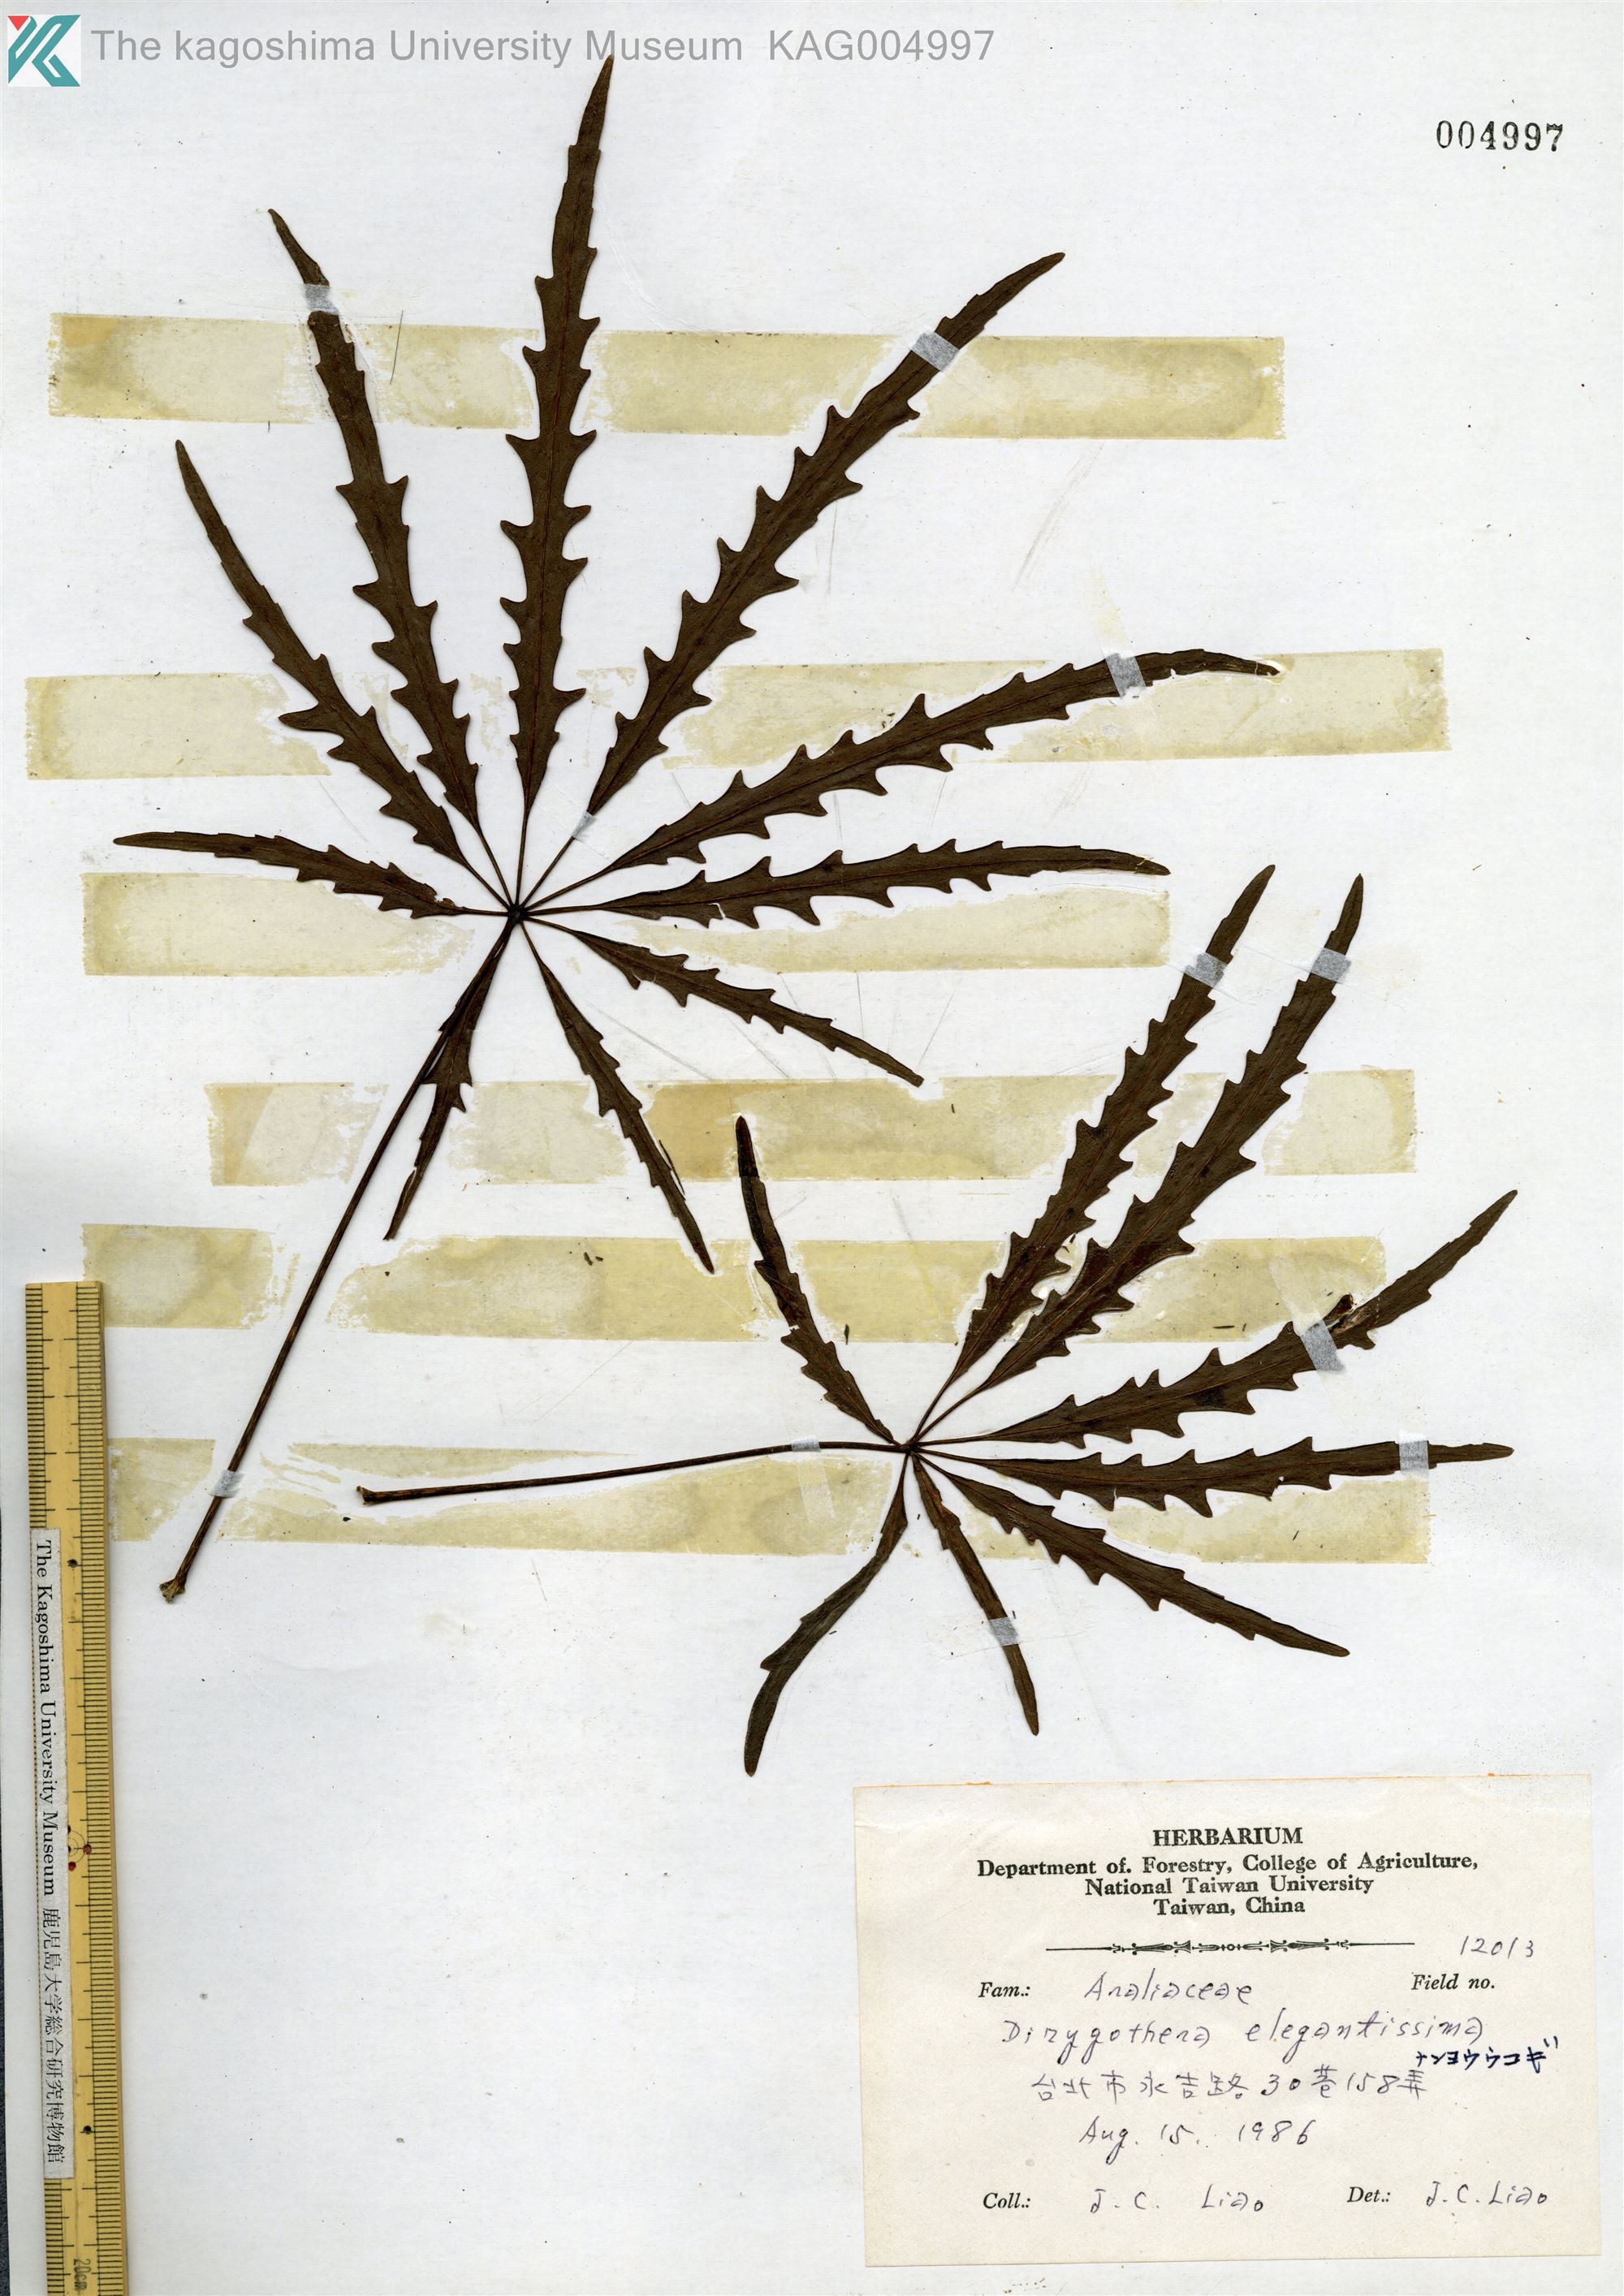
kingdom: Plantae
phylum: Tracheophyta
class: Magnoliopsida
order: Apiales
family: Araliaceae
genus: Plerandra
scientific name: Plerandra elegantissima
